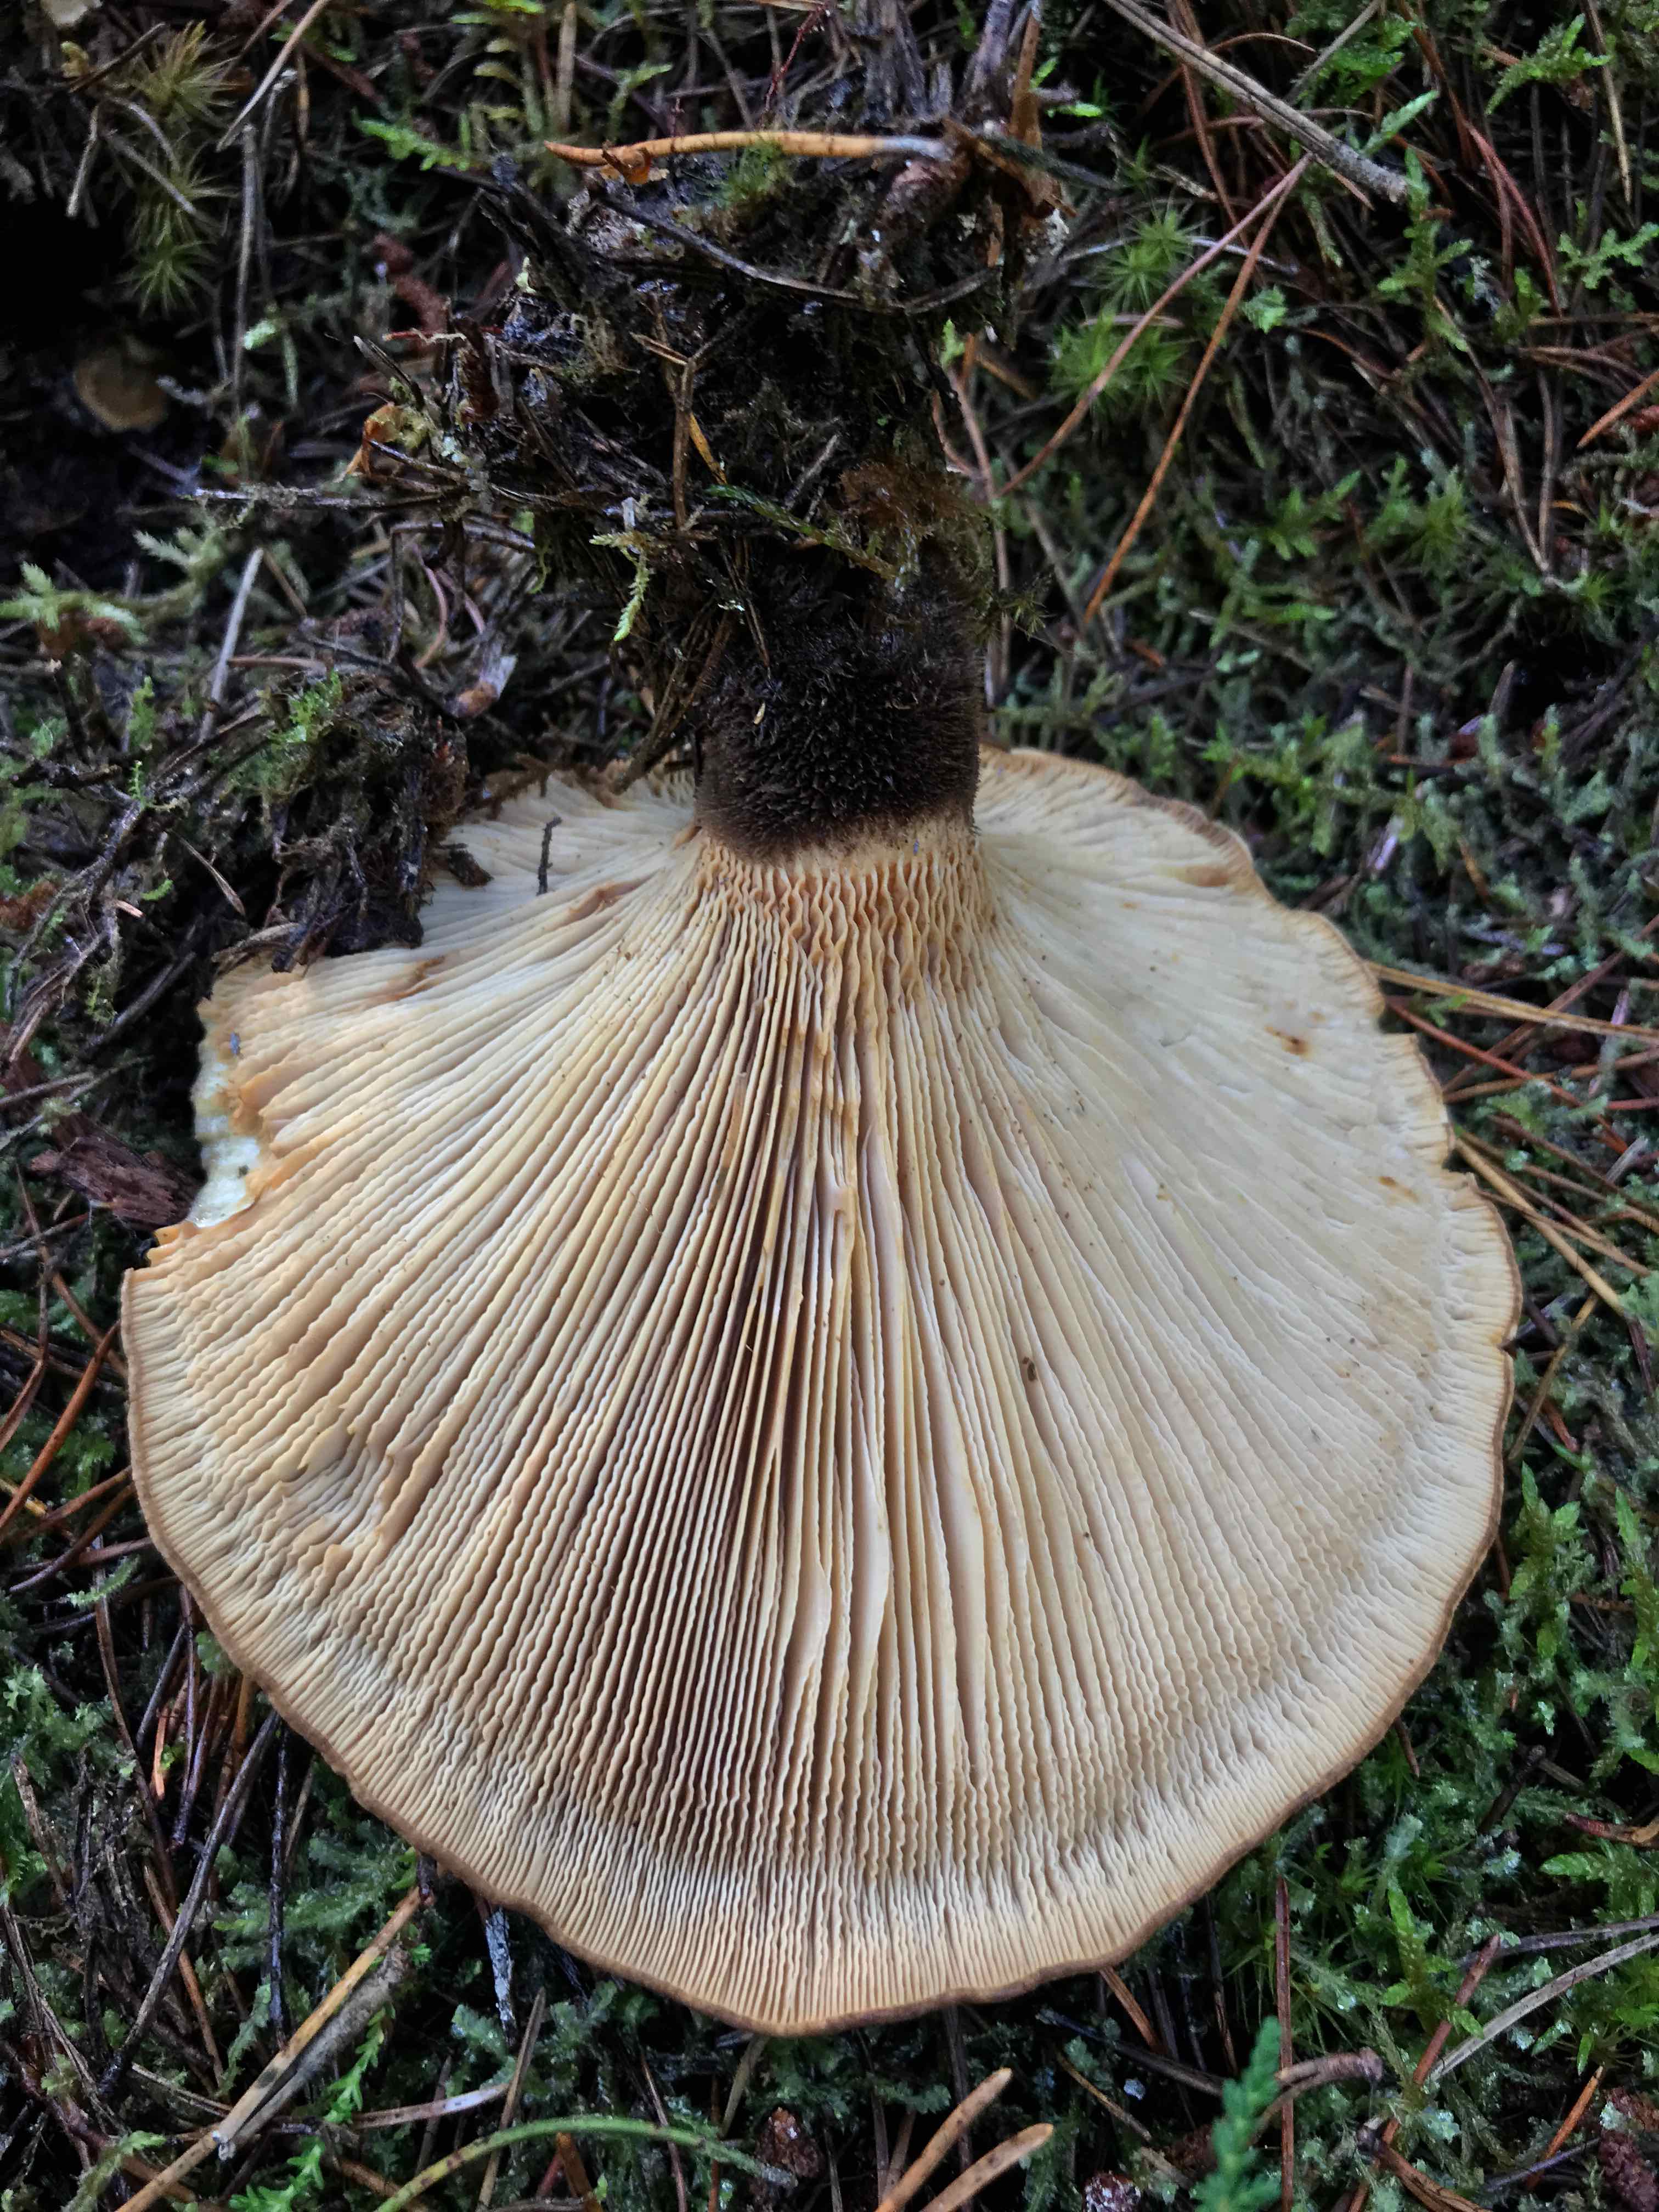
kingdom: Fungi
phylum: Basidiomycota
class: Agaricomycetes
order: Boletales
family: Tapinellaceae
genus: Tapinella
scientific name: Tapinella atrotomentosa
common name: sortfiltet viftesvamp
